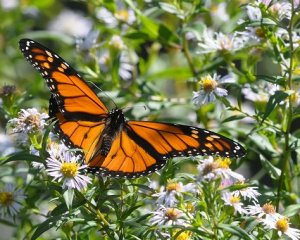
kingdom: Animalia
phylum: Arthropoda
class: Insecta
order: Lepidoptera
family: Nymphalidae
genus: Danaus
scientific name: Danaus plexippus
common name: Monarch
